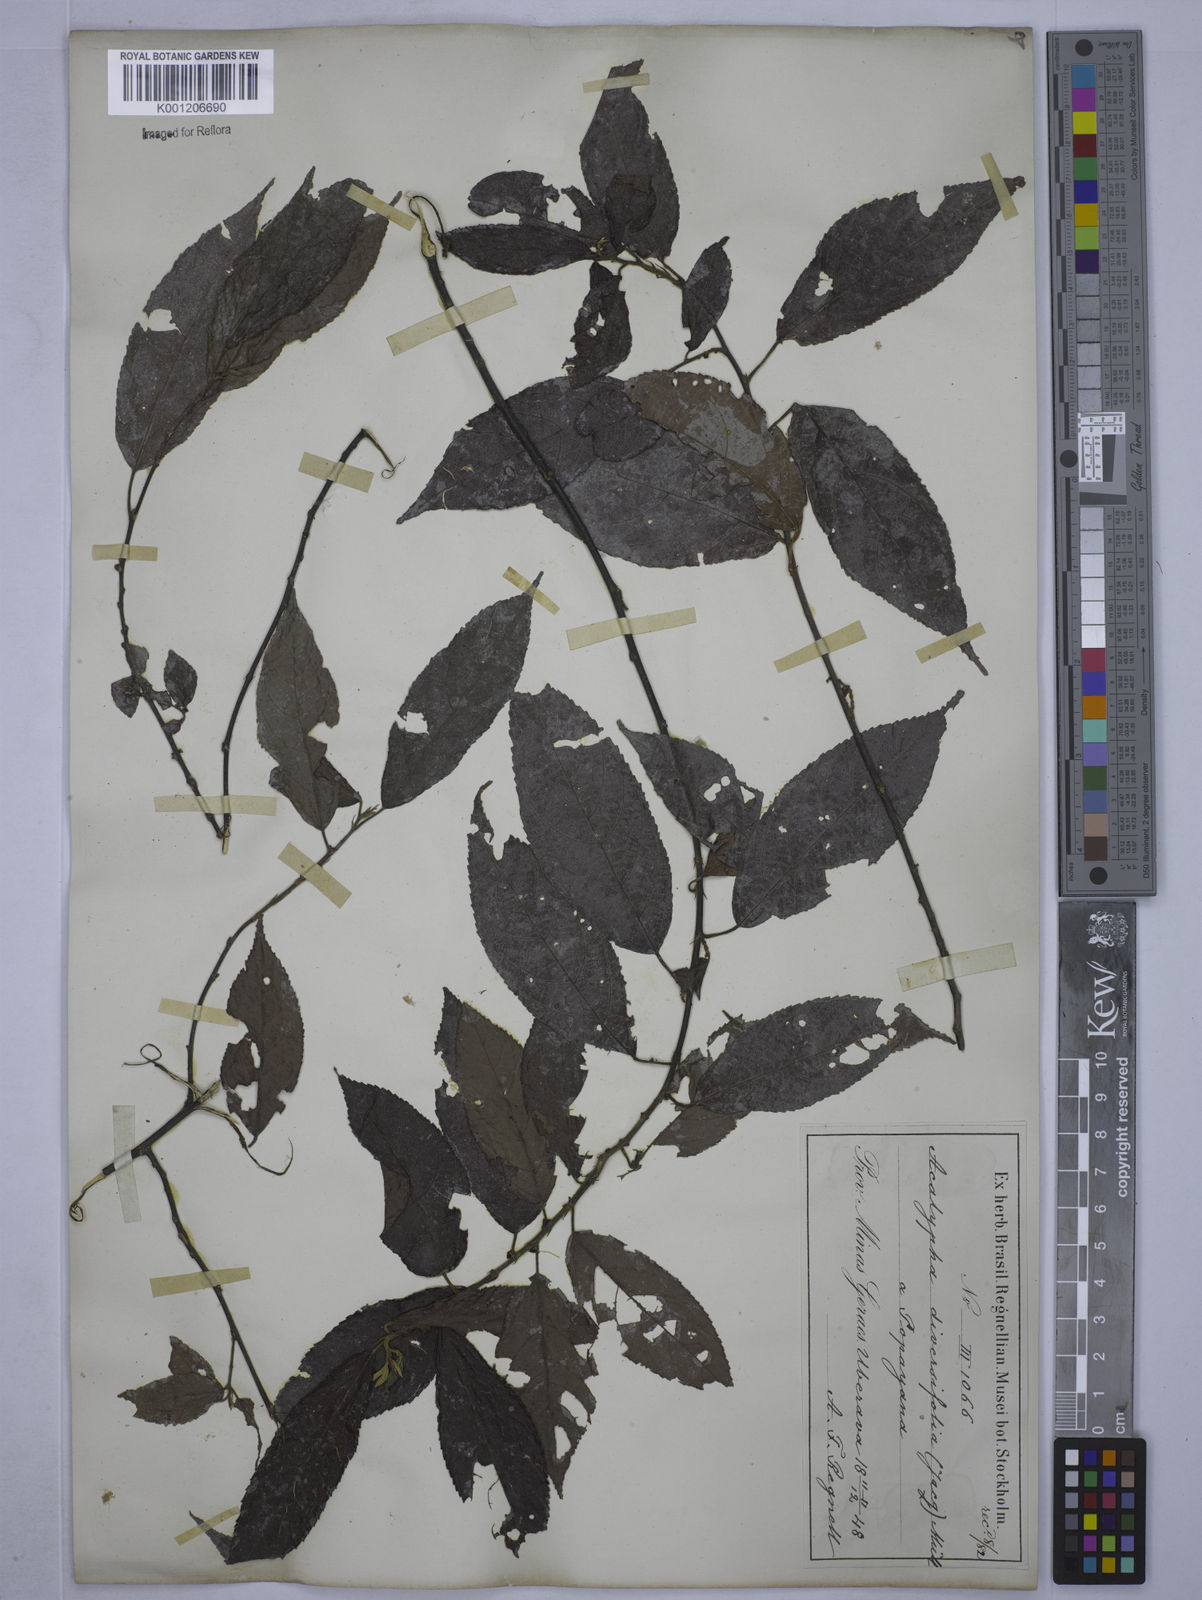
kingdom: Plantae
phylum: Tracheophyta
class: Magnoliopsida
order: Malpighiales
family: Euphorbiaceae
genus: Acalypha
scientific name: Acalypha diversifolia
